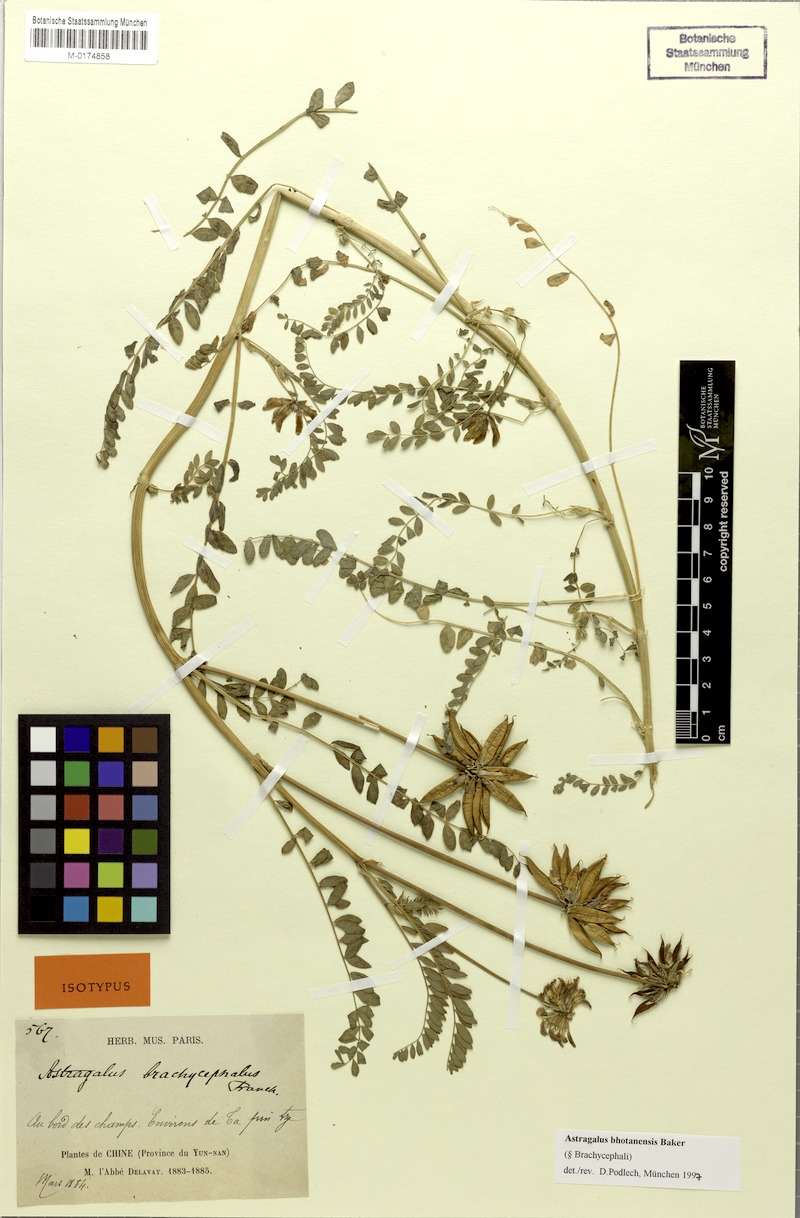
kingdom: Plantae
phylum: Tracheophyta
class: Magnoliopsida
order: Fabales
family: Fabaceae
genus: Astragalus
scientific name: Astragalus bhotanensis
